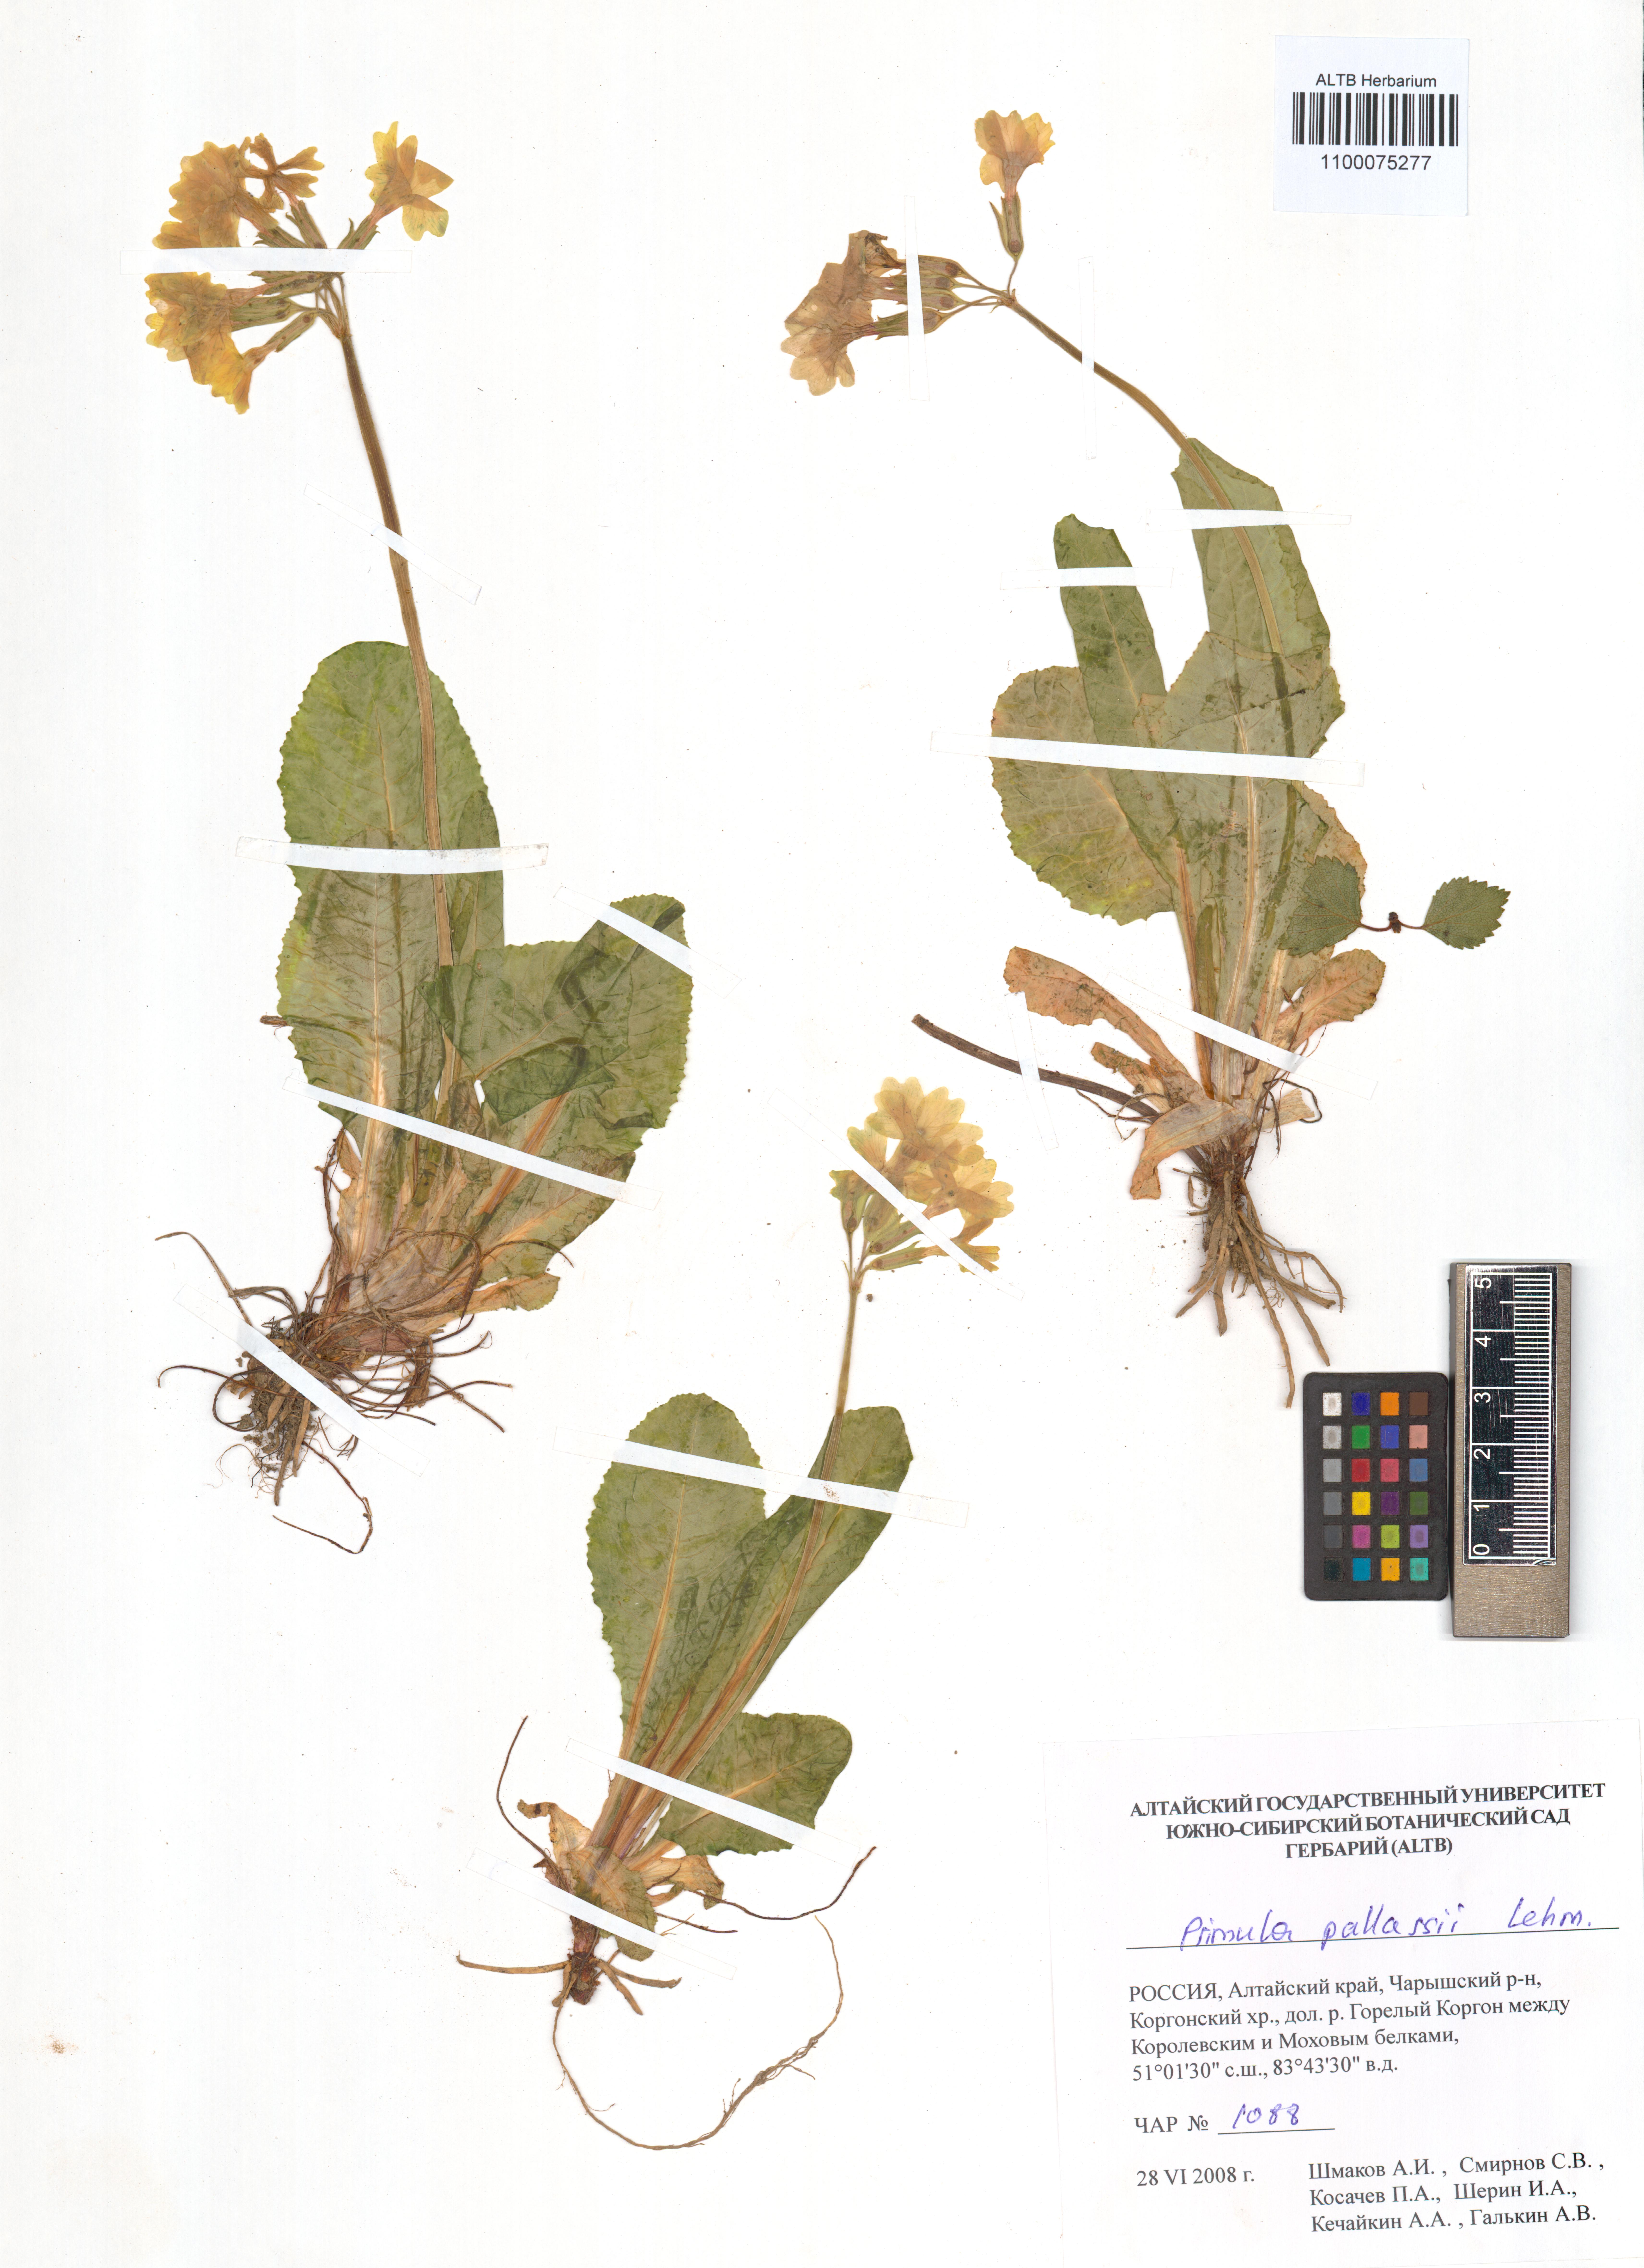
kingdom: Plantae
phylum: Tracheophyta
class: Magnoliopsida
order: Ericales
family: Primulaceae
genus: Primula
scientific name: Primula elatior
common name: Oxlip
